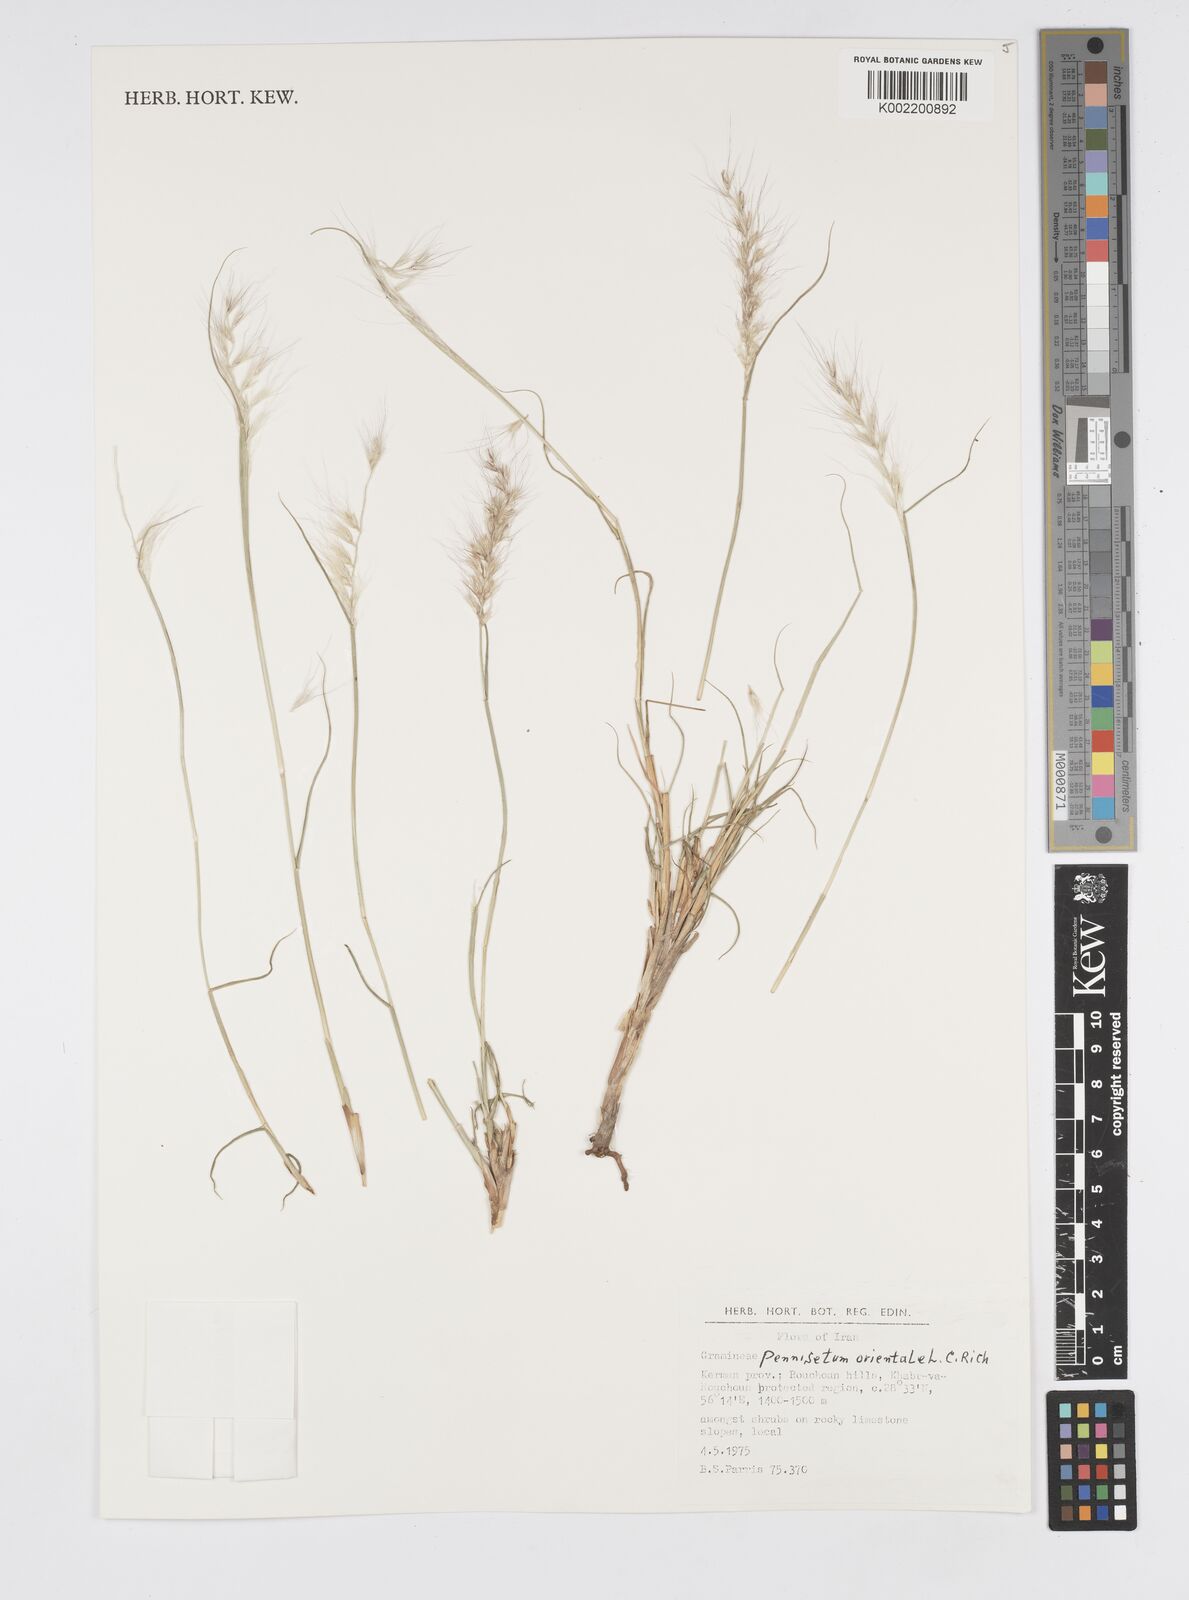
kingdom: Plantae
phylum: Tracheophyta
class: Liliopsida
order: Poales
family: Poaceae
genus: Cenchrus
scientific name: Cenchrus orientalis
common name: Oriental fountain grass
